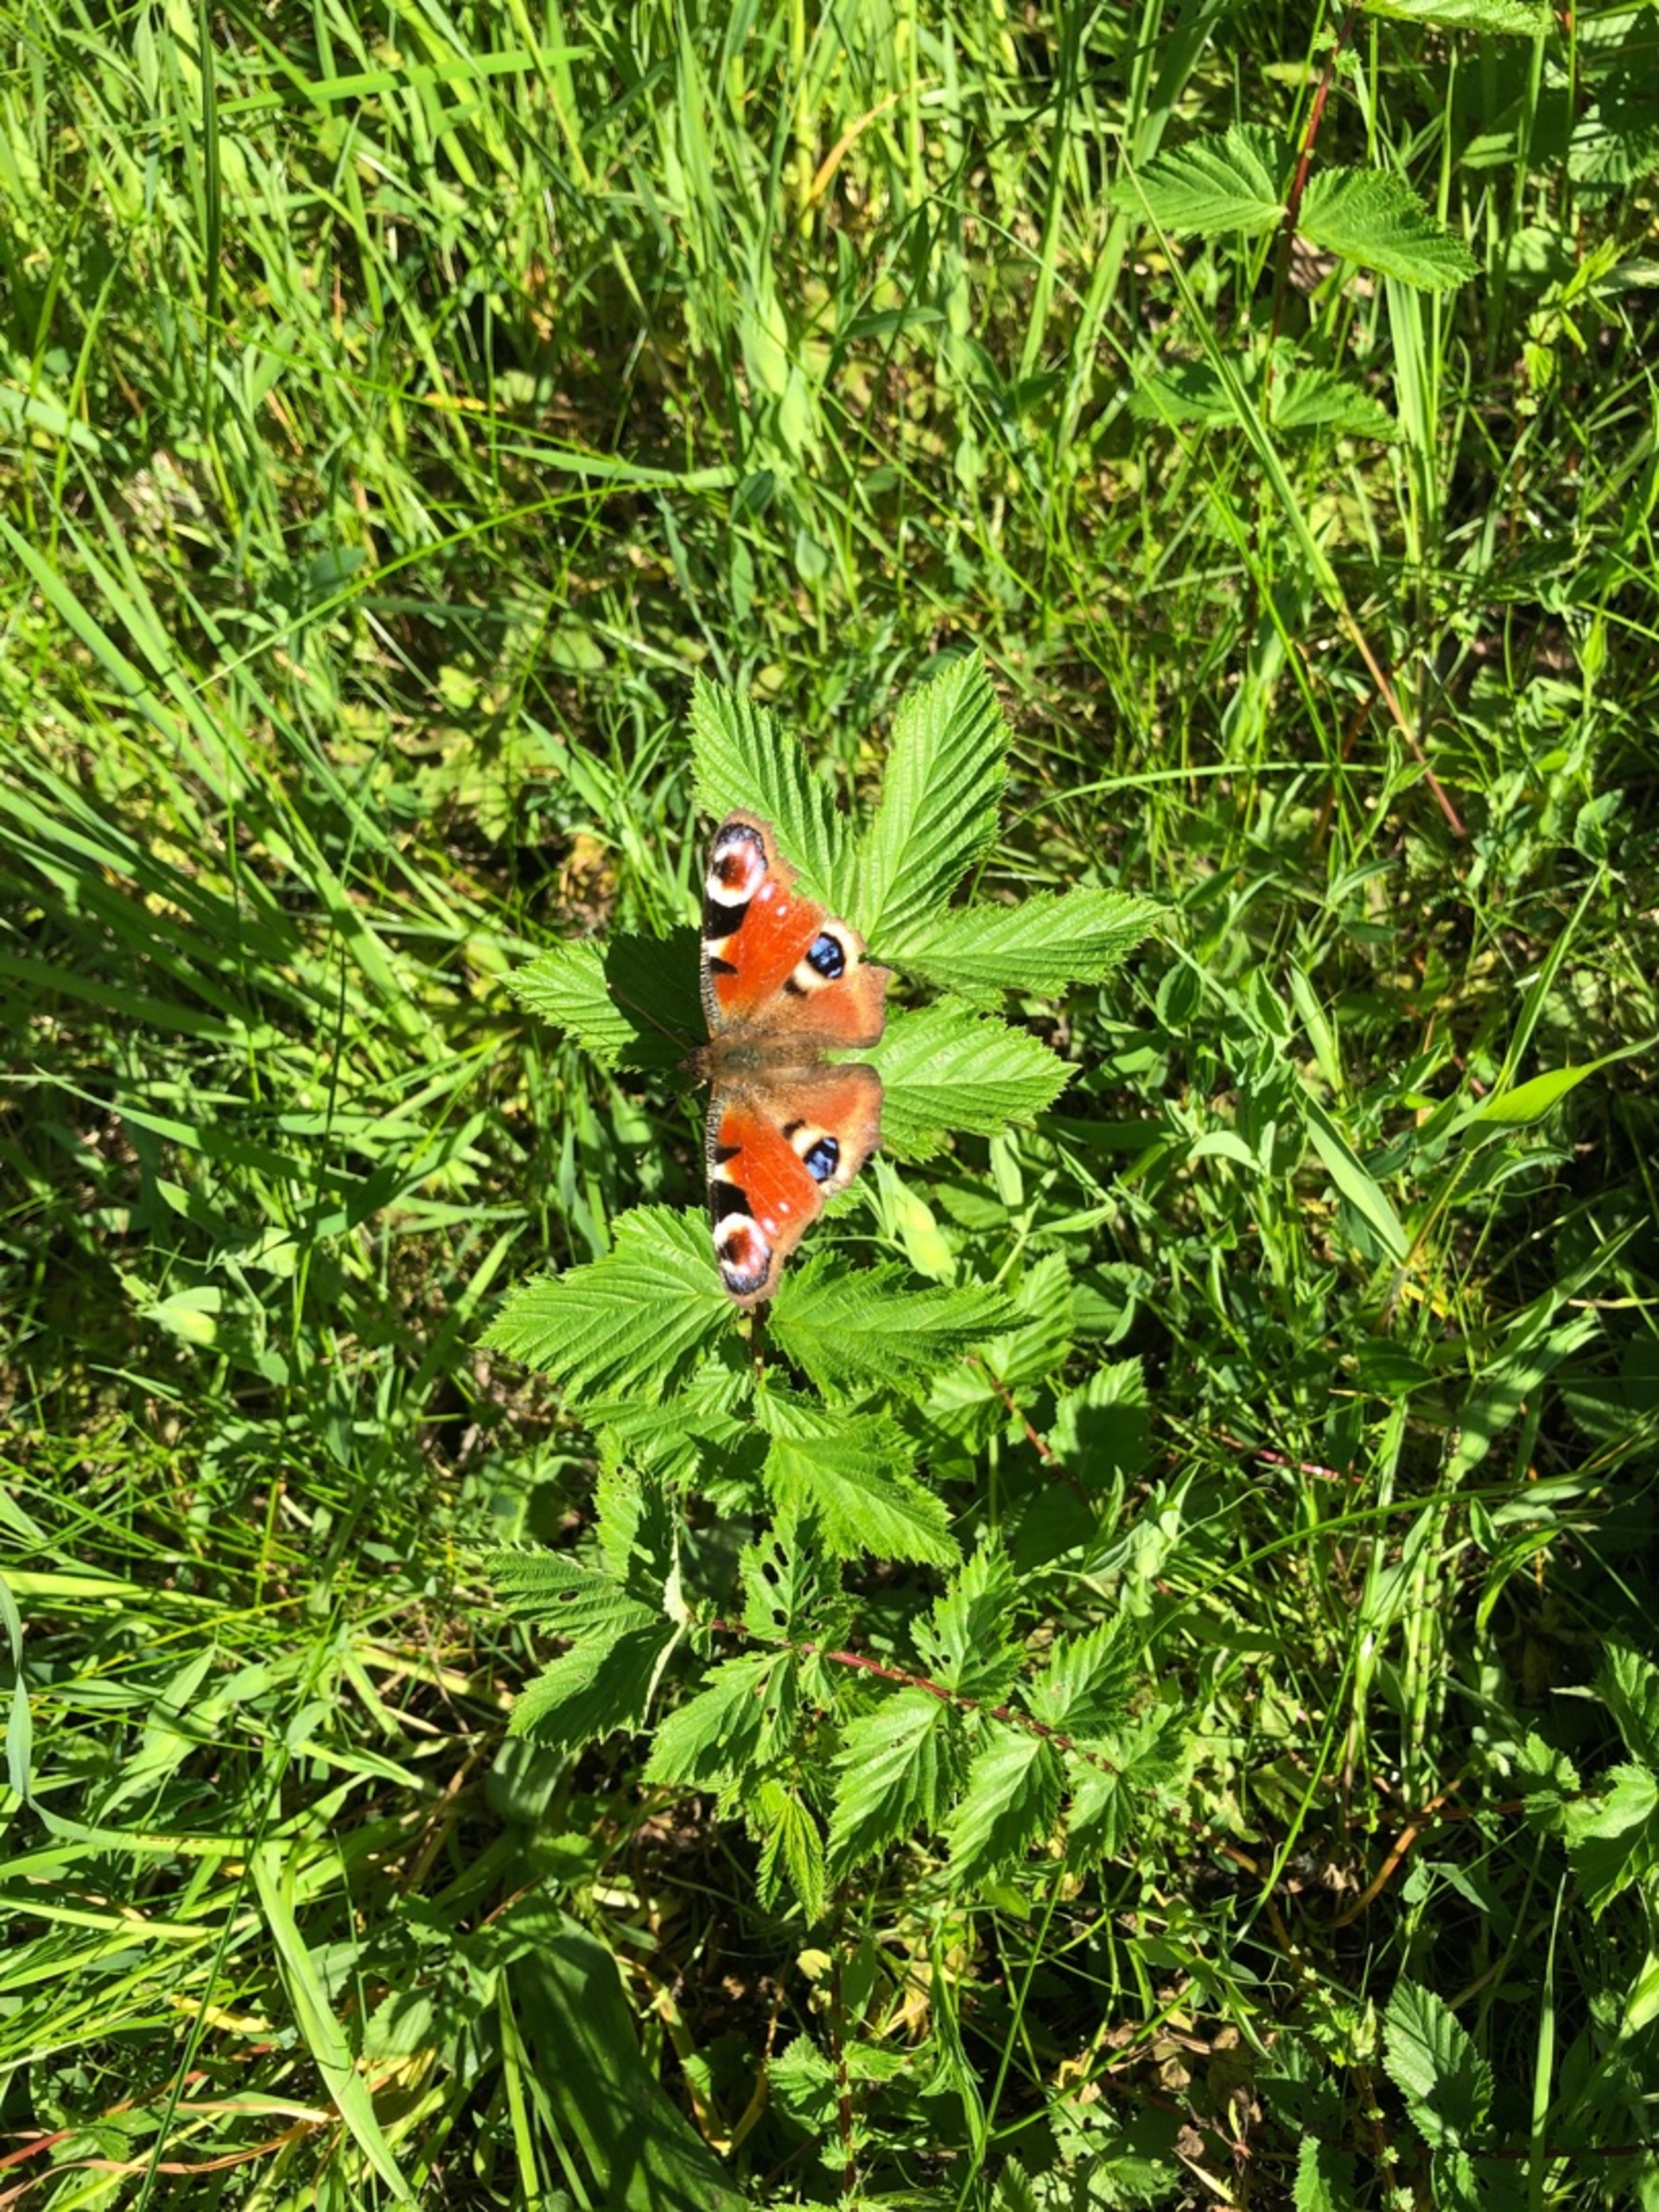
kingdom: Animalia
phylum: Arthropoda
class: Insecta
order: Lepidoptera
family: Nymphalidae
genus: Aglais
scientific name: Aglais io
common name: Dagpåfugleøje
